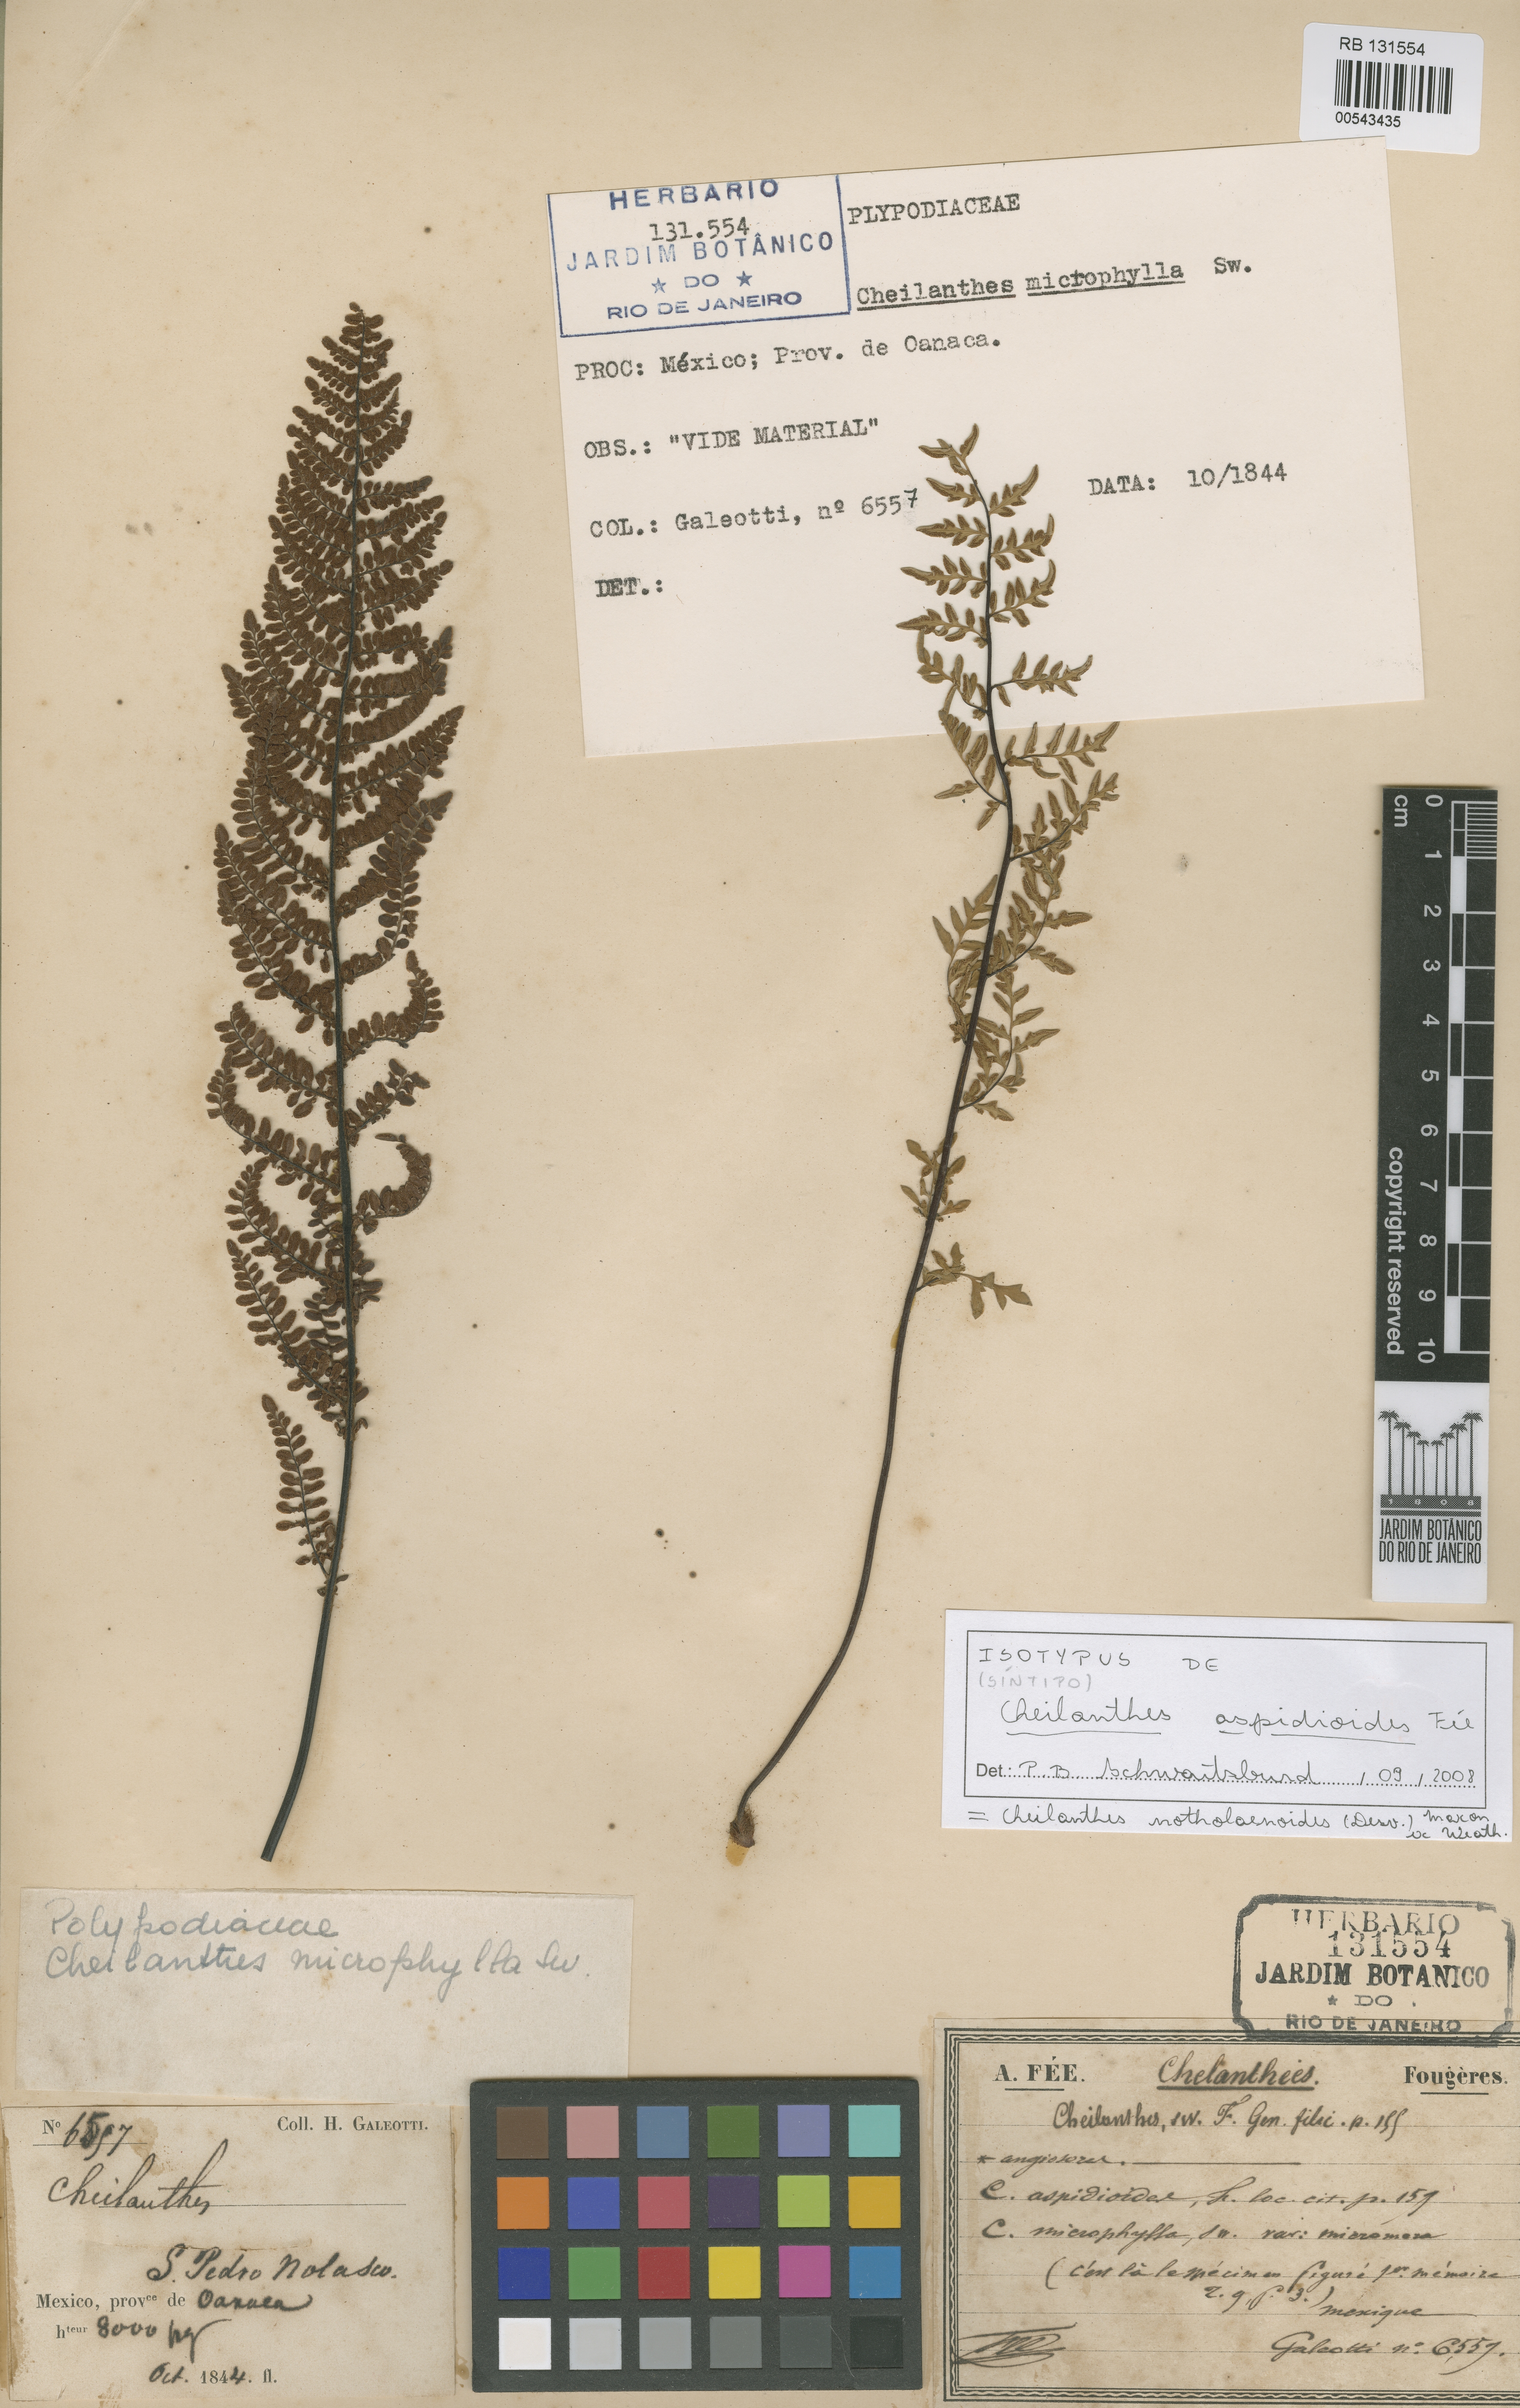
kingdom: Plantae
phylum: Tracheophyta
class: Polypodiopsida
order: Polypodiales
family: Pteridaceae
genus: Myriopteris
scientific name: Myriopteris notholaenoides
